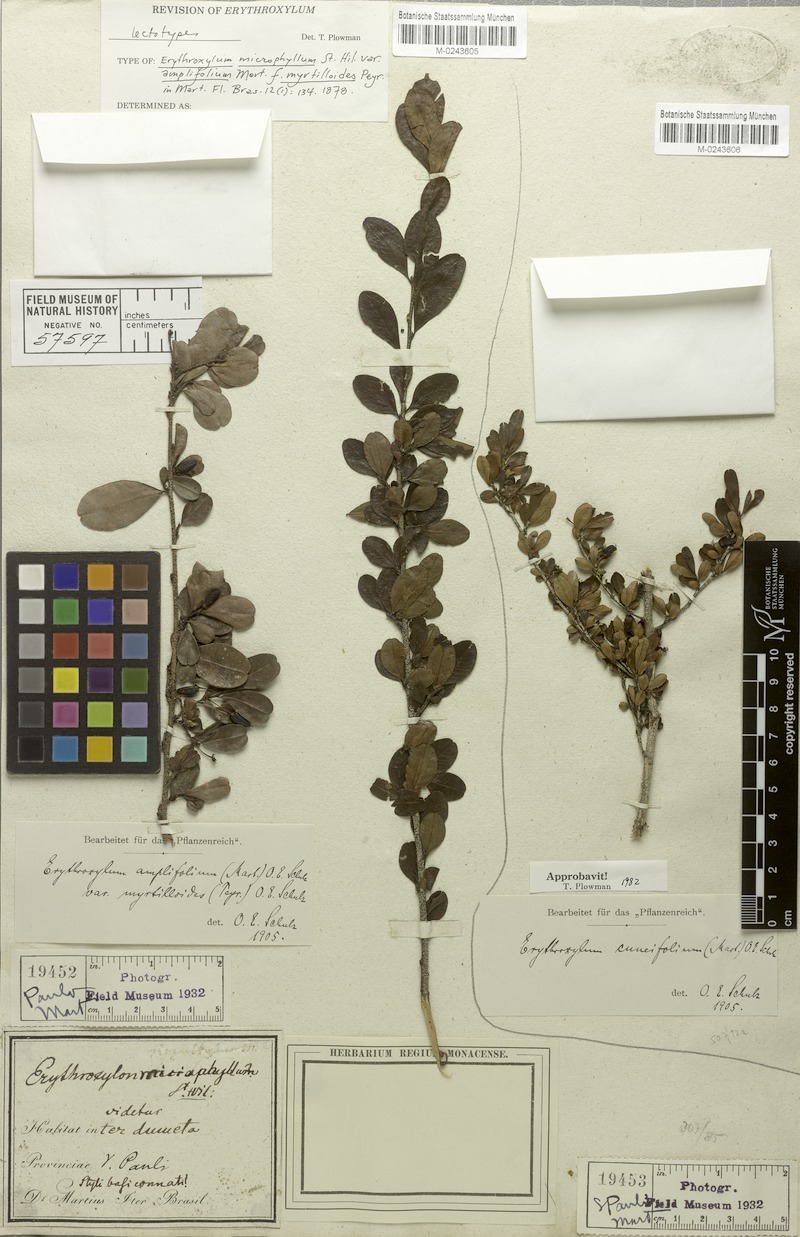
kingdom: Plantae
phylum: Tracheophyta
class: Magnoliopsida
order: Malpighiales
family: Erythroxylaceae
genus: Erythroxylum
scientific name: Erythroxylum cuneifolium
